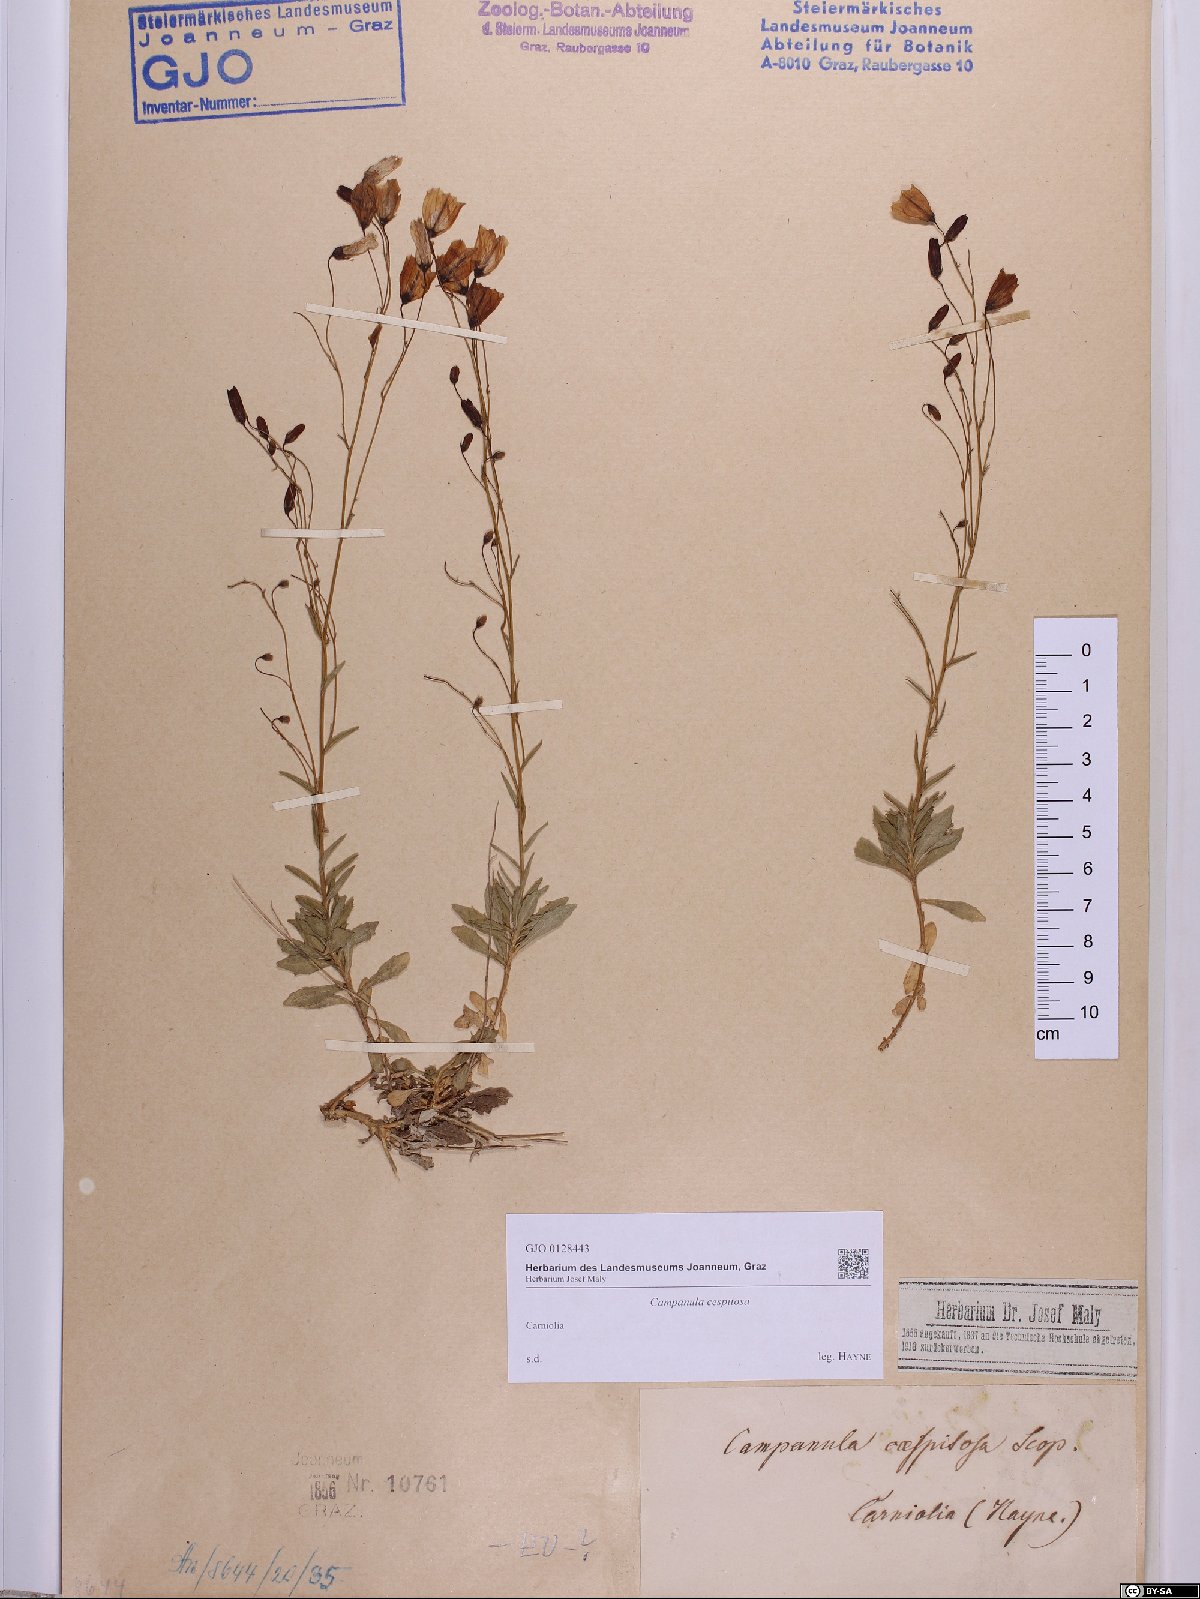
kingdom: Plantae
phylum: Tracheophyta
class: Magnoliopsida
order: Asterales
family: Campanulaceae
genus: Campanula
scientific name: Campanula cespitosa
